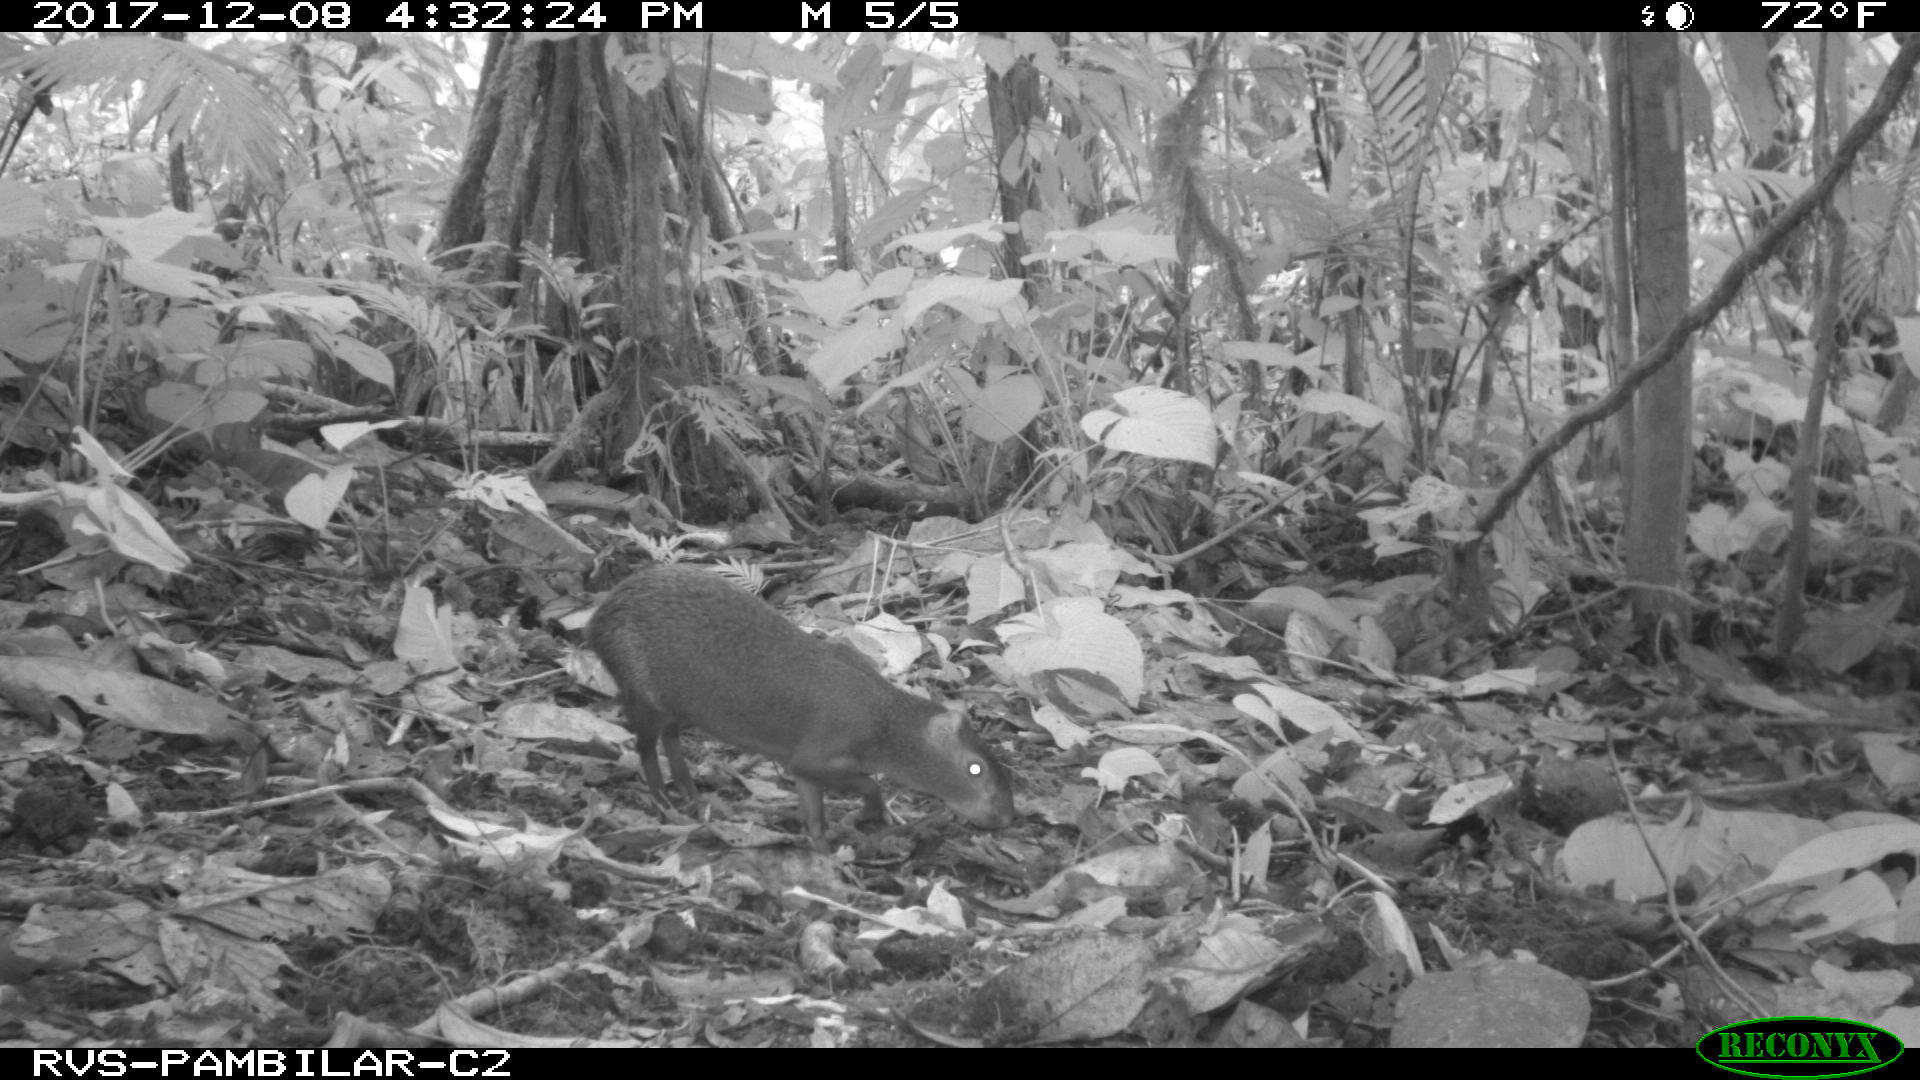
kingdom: Animalia
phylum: Chordata
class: Mammalia
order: Rodentia
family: Dasyproctidae
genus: Dasyprocta
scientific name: Dasyprocta punctata
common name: Central american agouti
